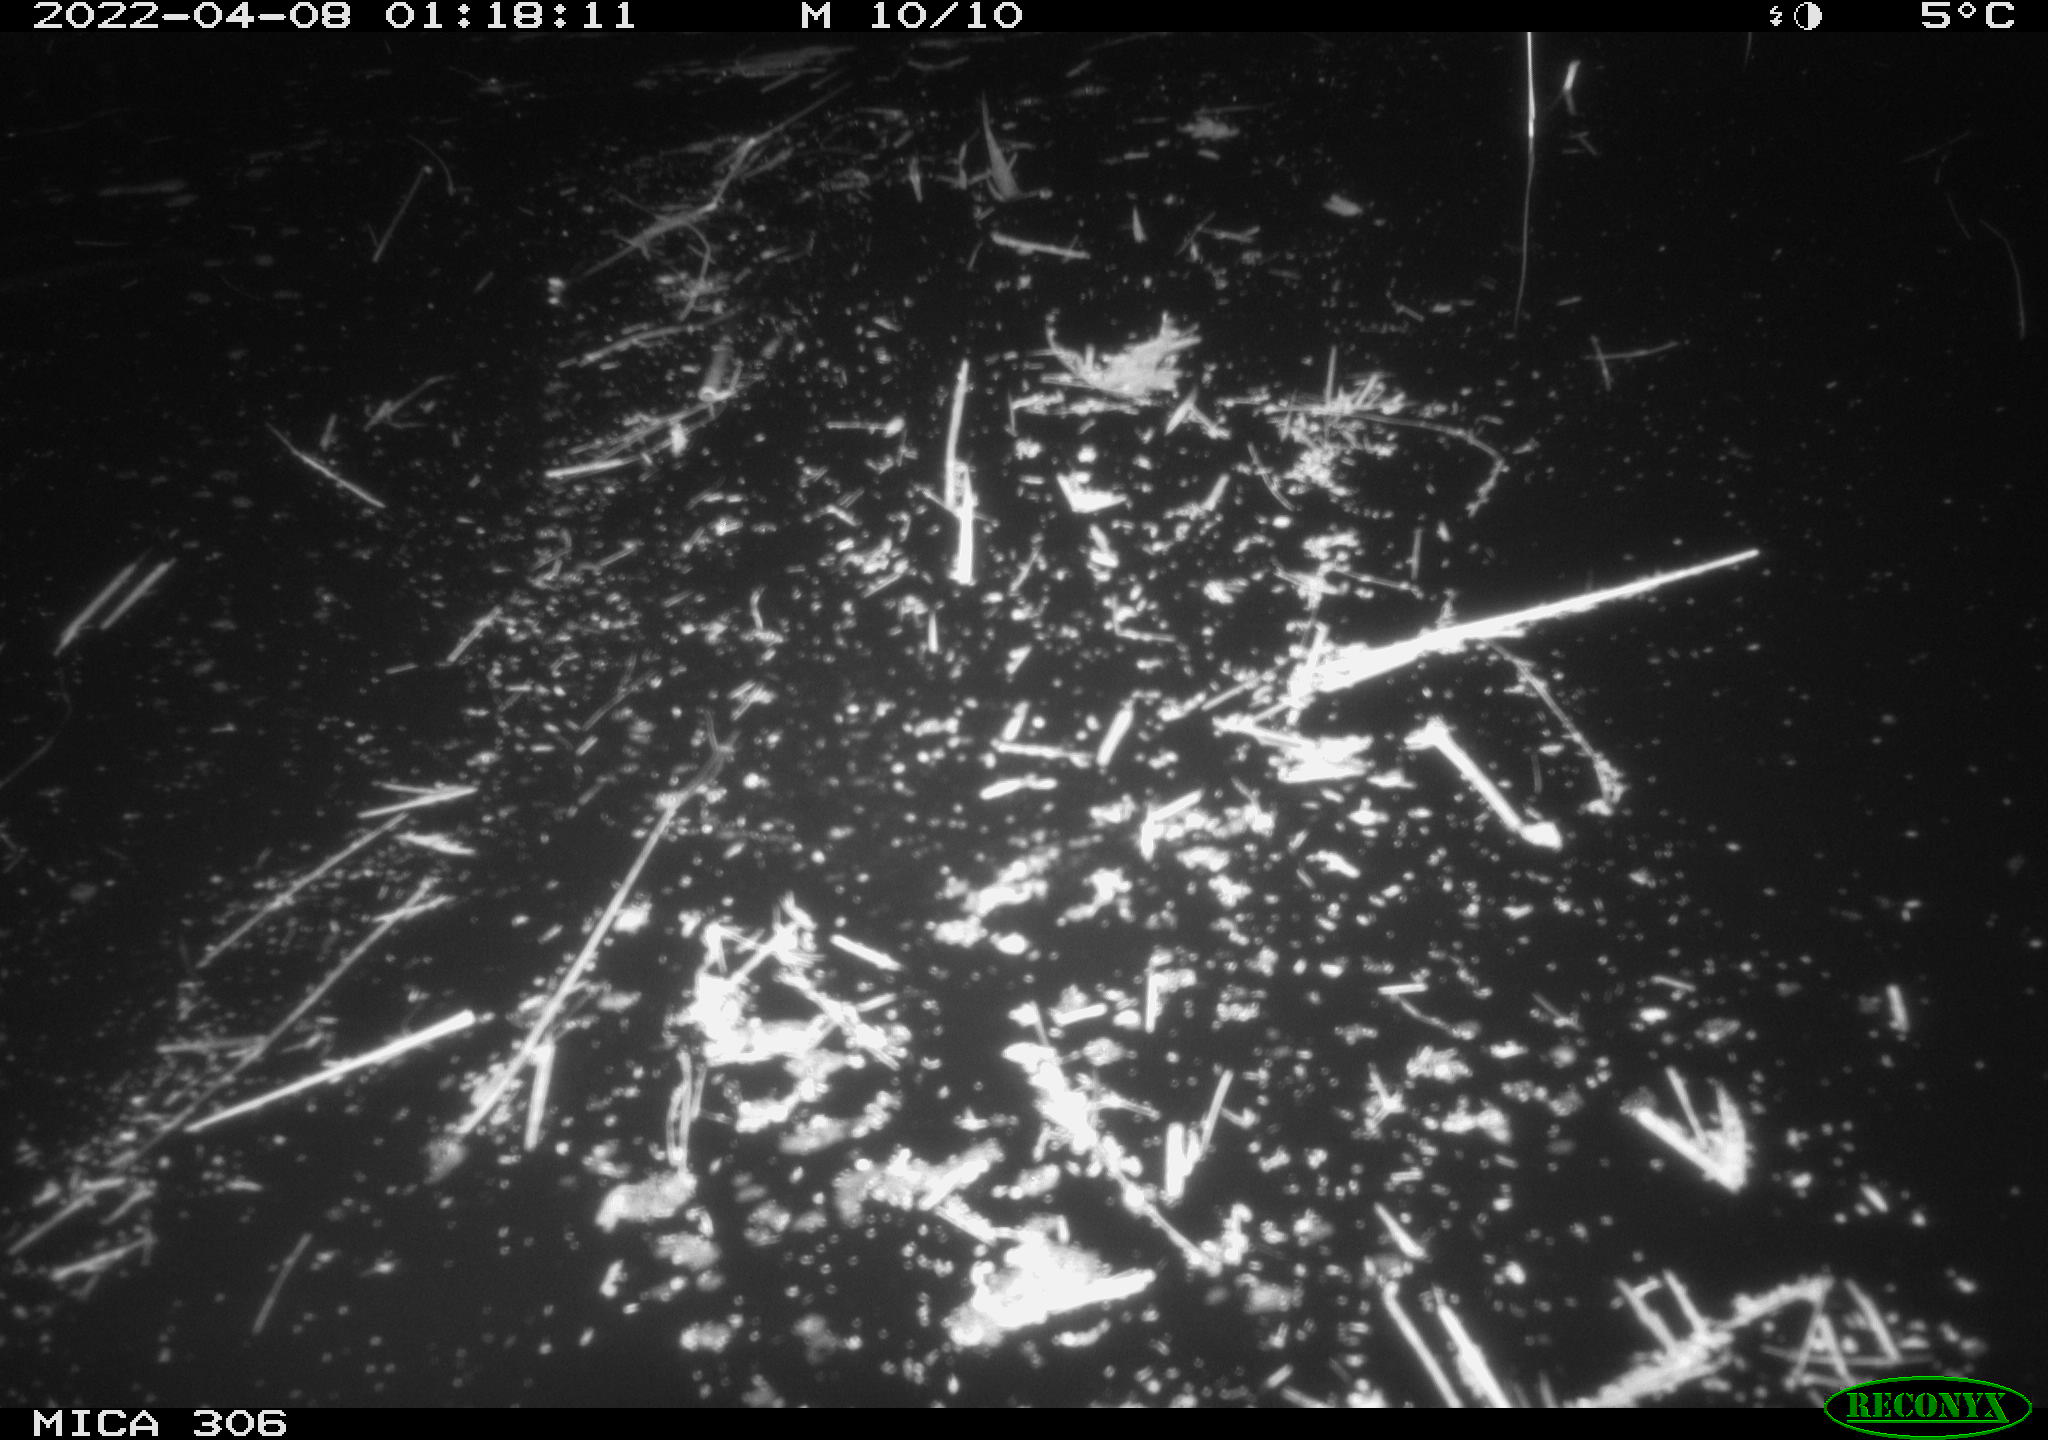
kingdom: Animalia
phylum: Chordata
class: Aves
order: Anseriformes
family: Anatidae
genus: Anas
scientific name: Anas platyrhynchos
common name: Mallard
